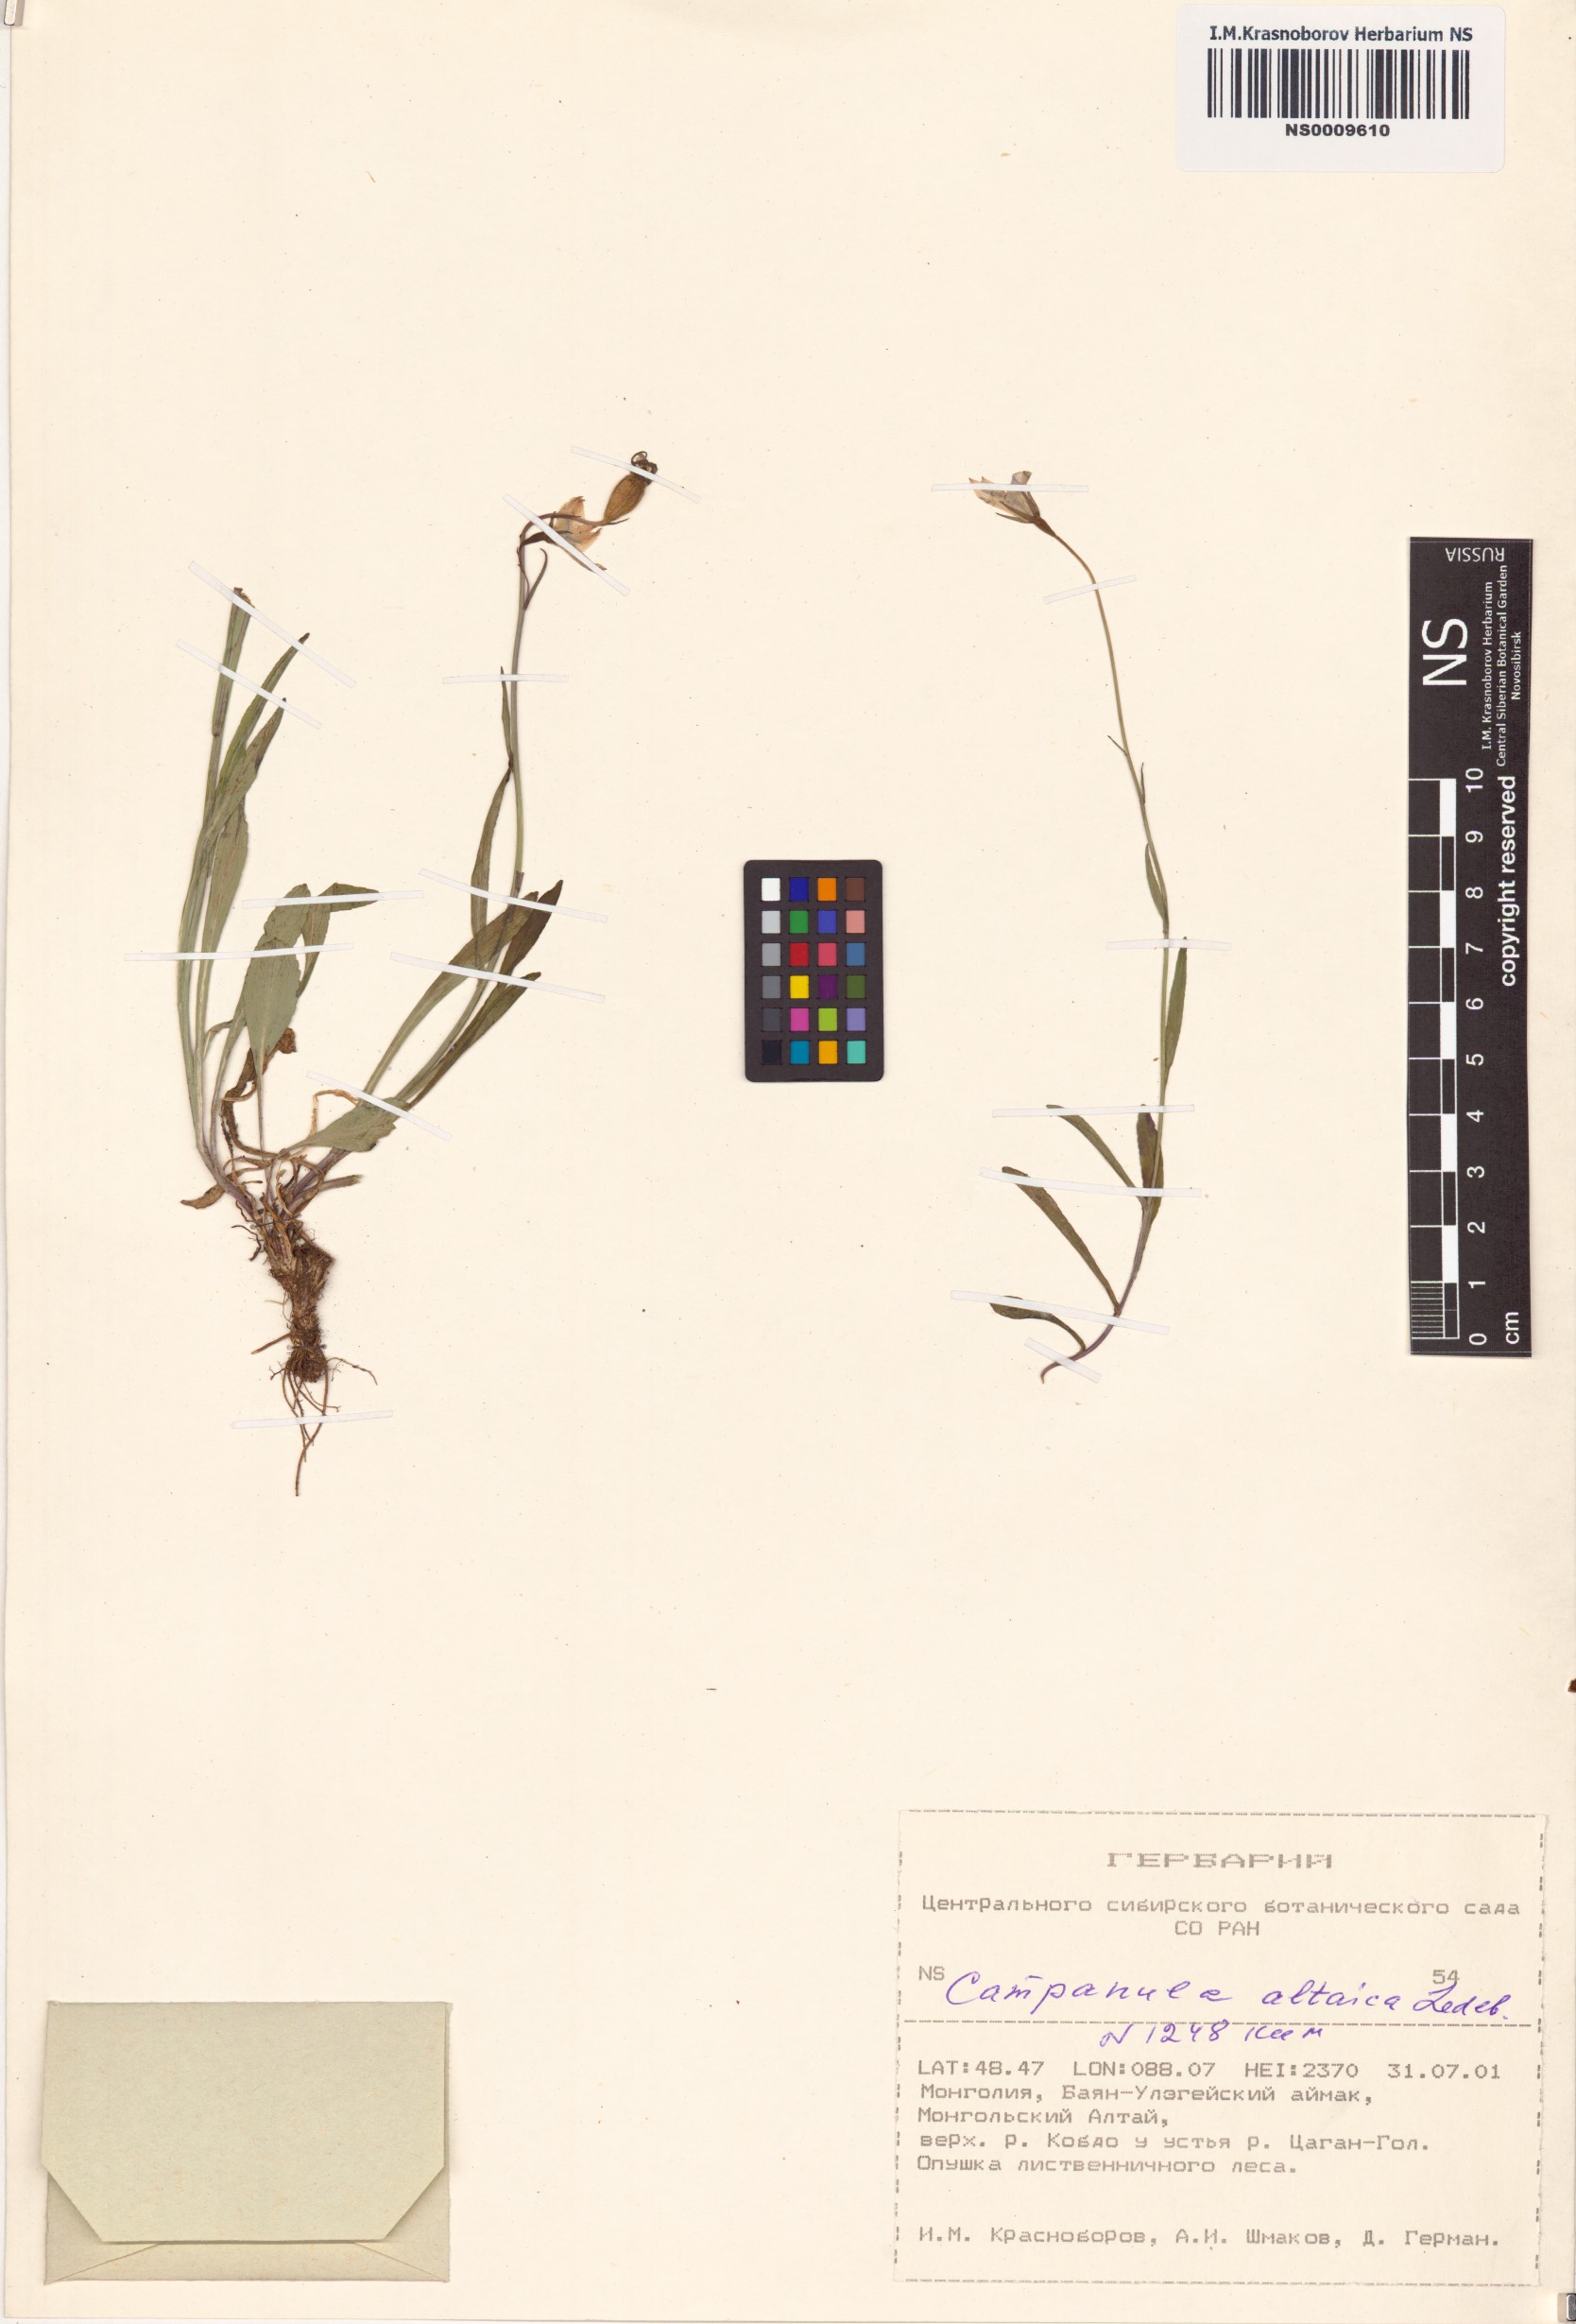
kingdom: Plantae
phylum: Tracheophyta
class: Magnoliopsida
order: Asterales
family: Campanulaceae
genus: Campanula
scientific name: Campanula stevenii
